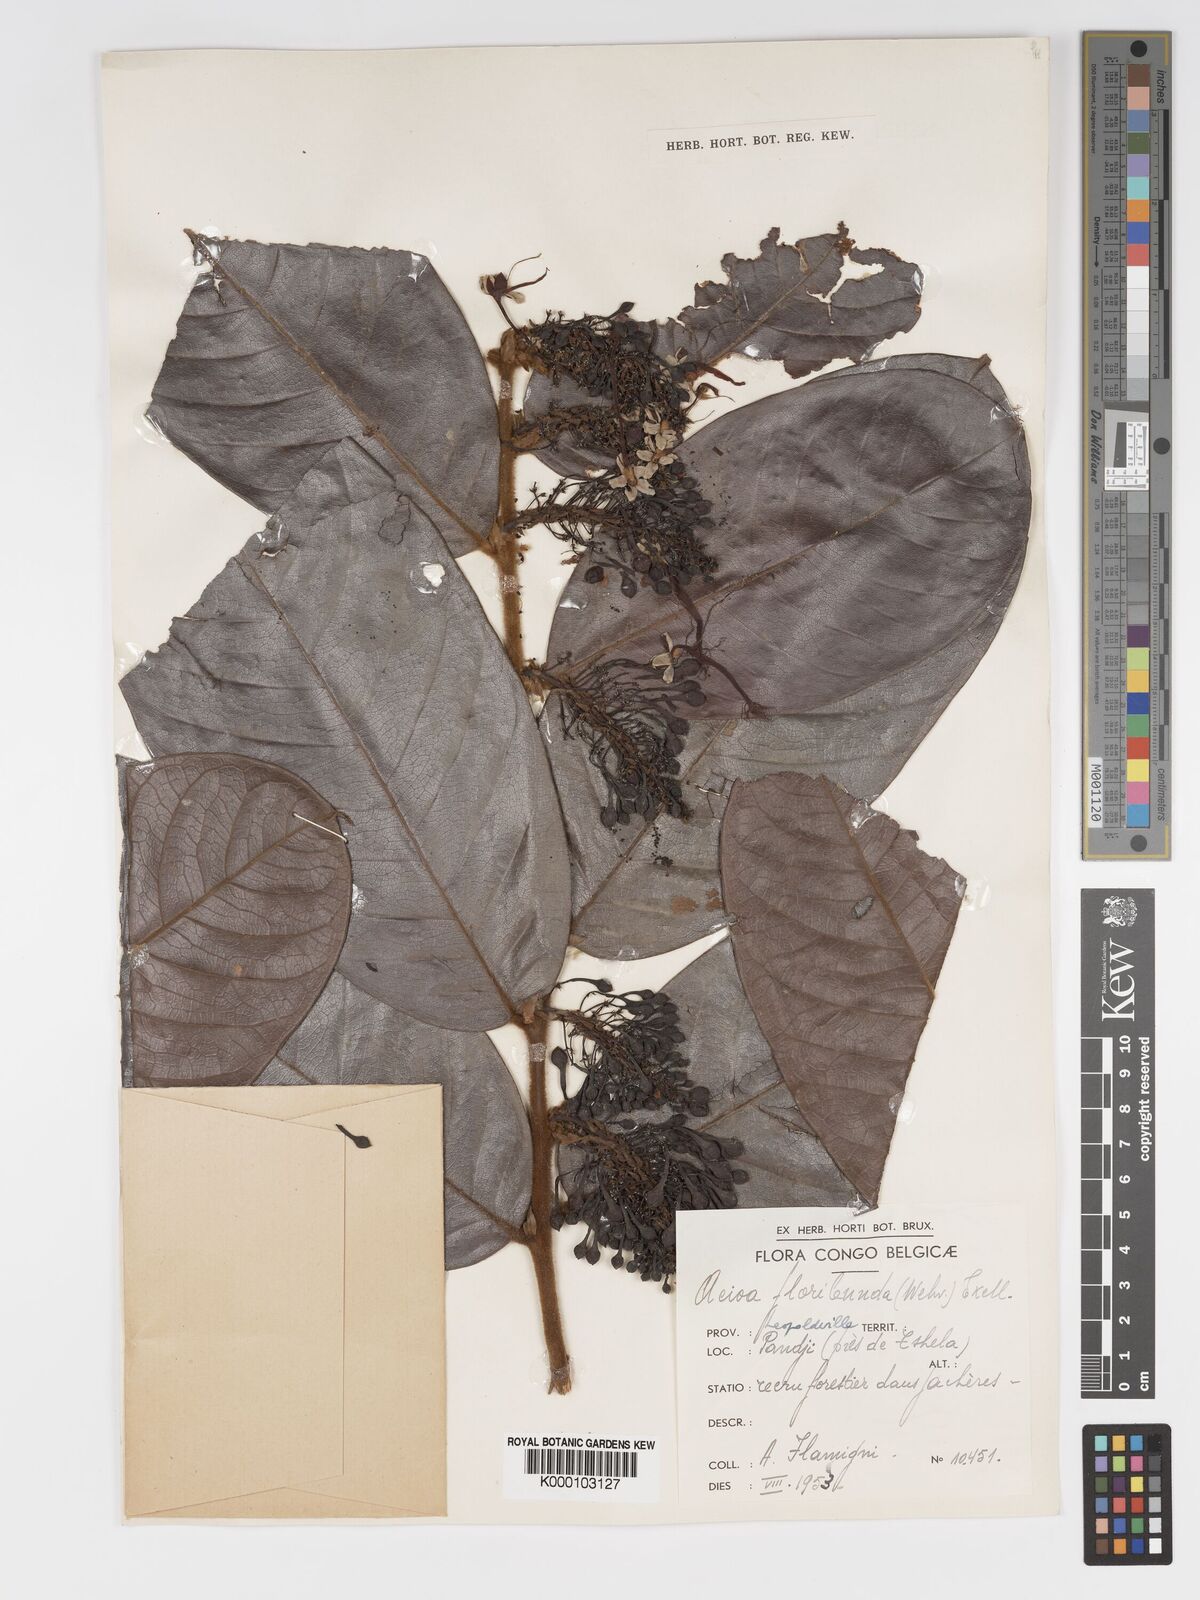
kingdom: Plantae
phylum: Tracheophyta
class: Magnoliopsida
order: Malpighiales
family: Chrysobalanaceae
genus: Dactyladenia
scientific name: Dactyladenia floribunda
